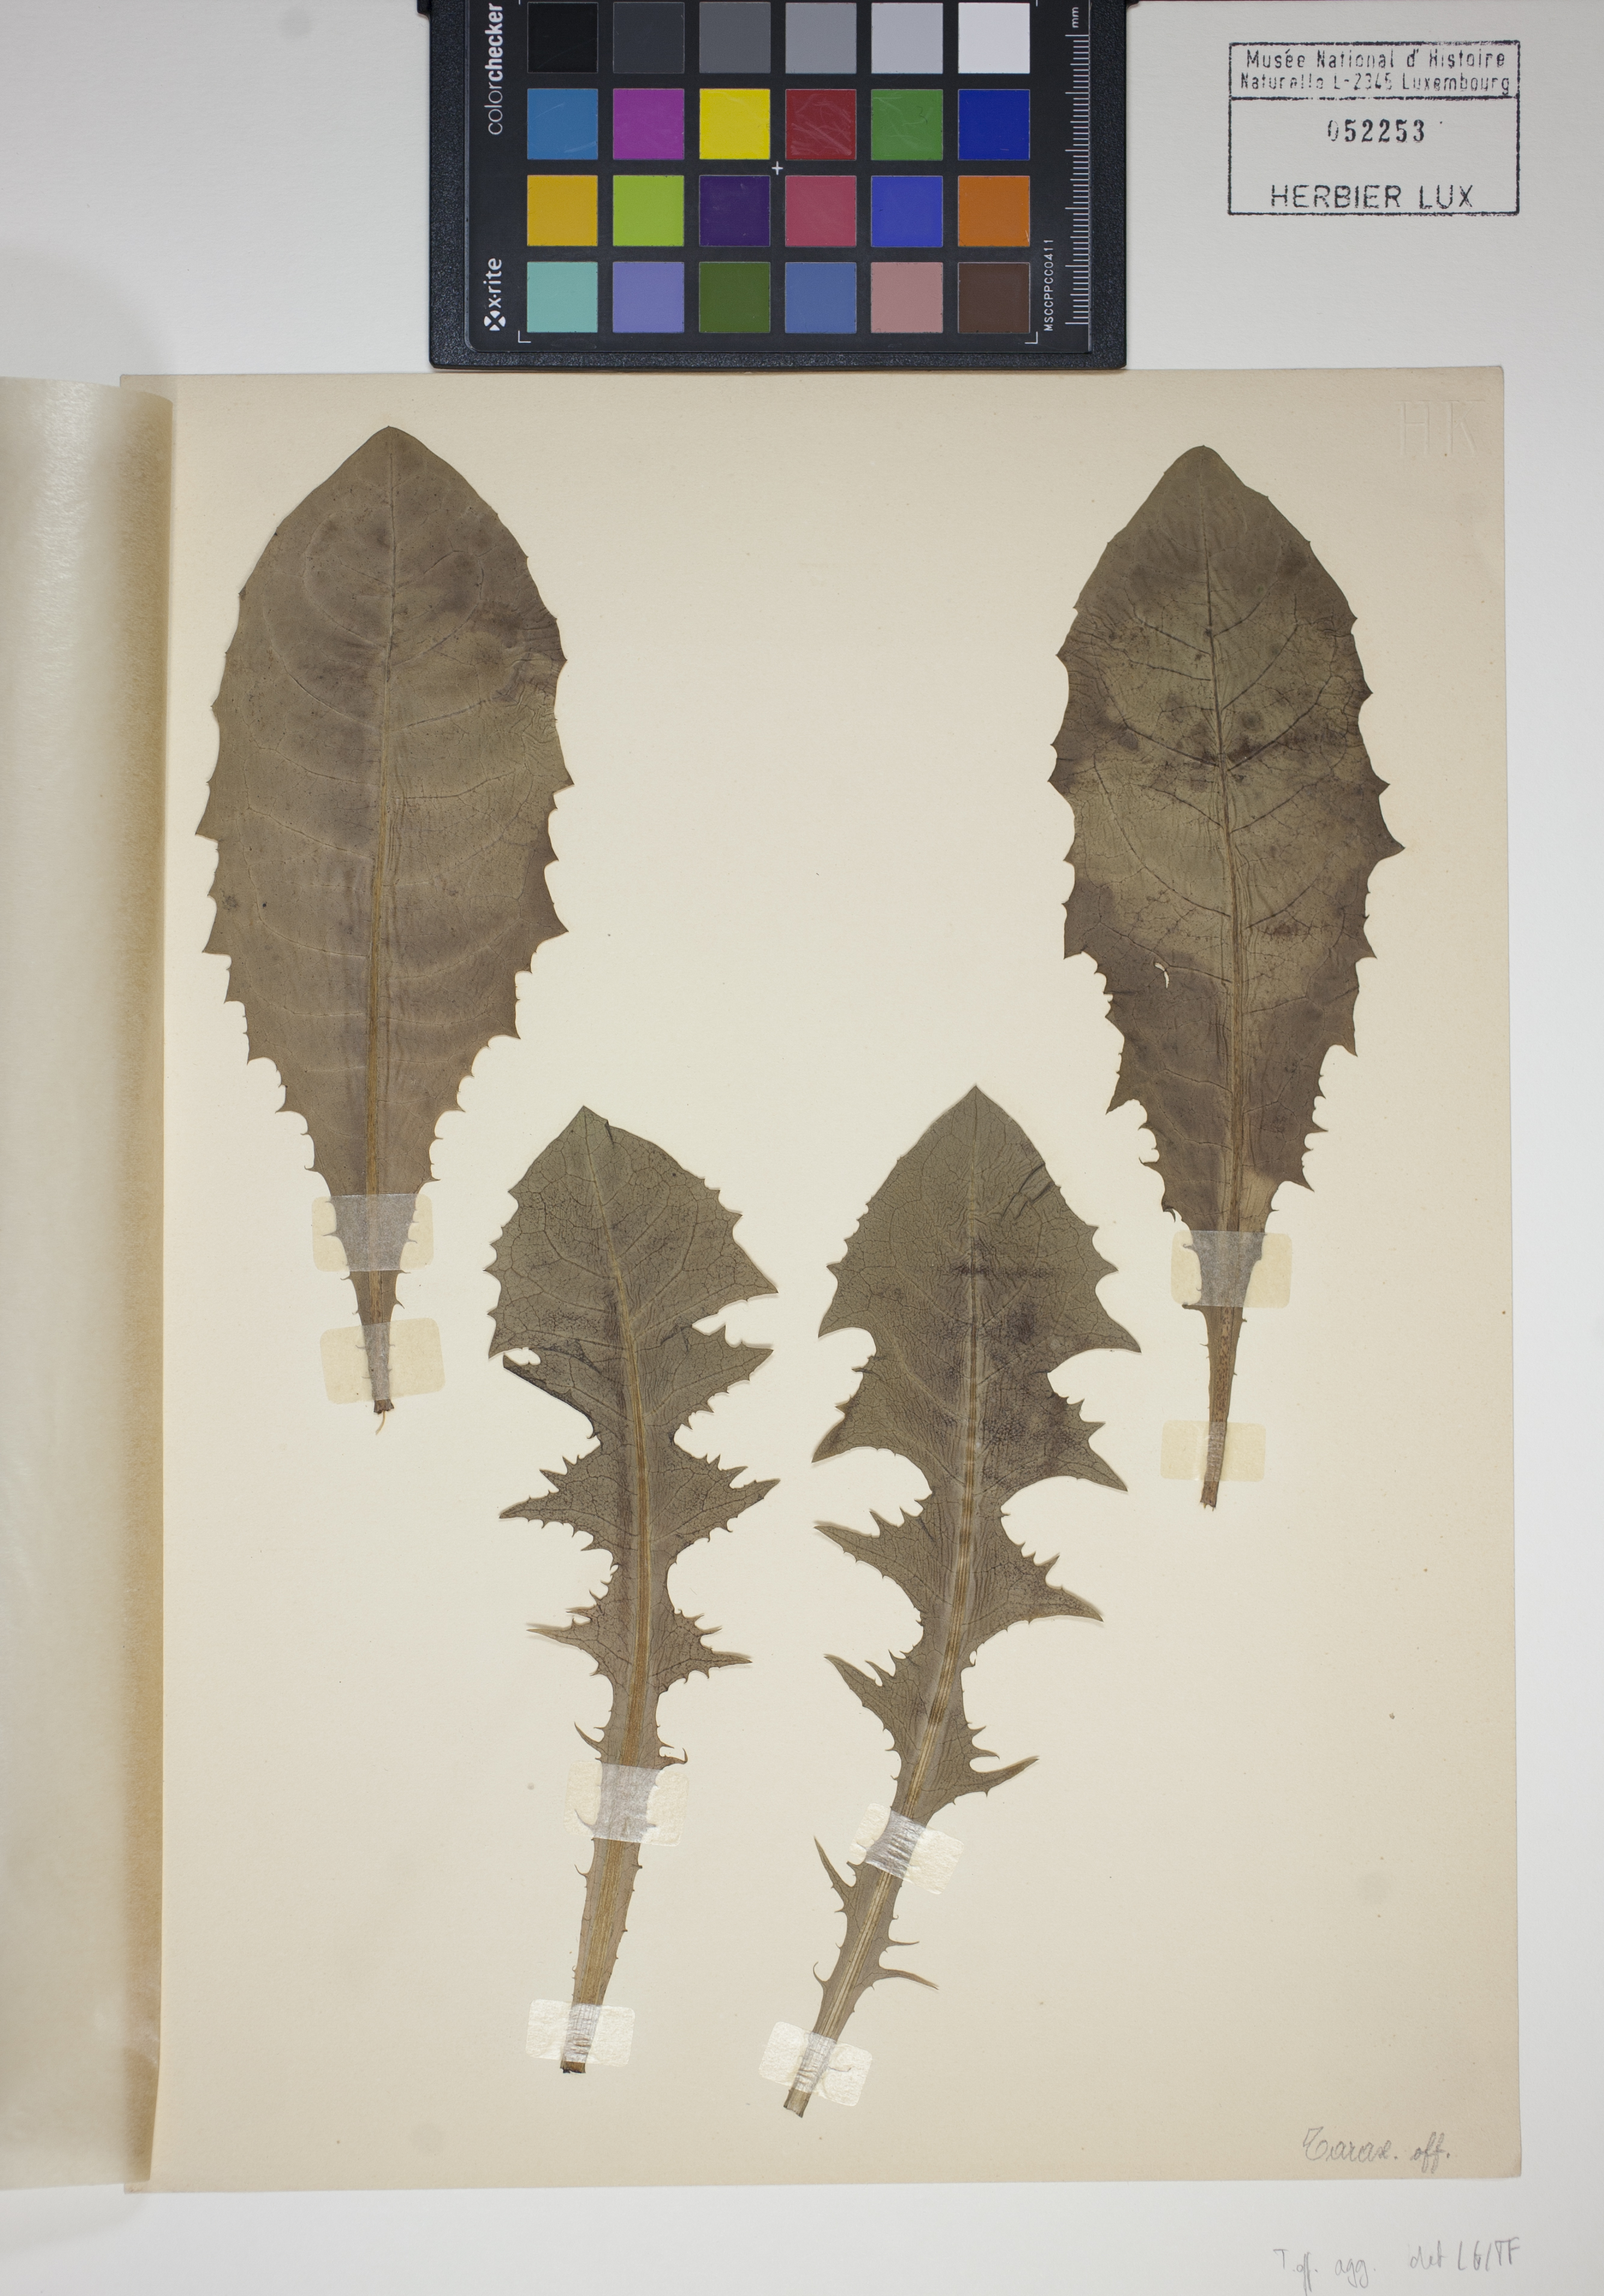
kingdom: Plantae
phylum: Tracheophyta
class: Magnoliopsida
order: Asterales
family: Asteraceae
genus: Taraxacum
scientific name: Taraxacum
